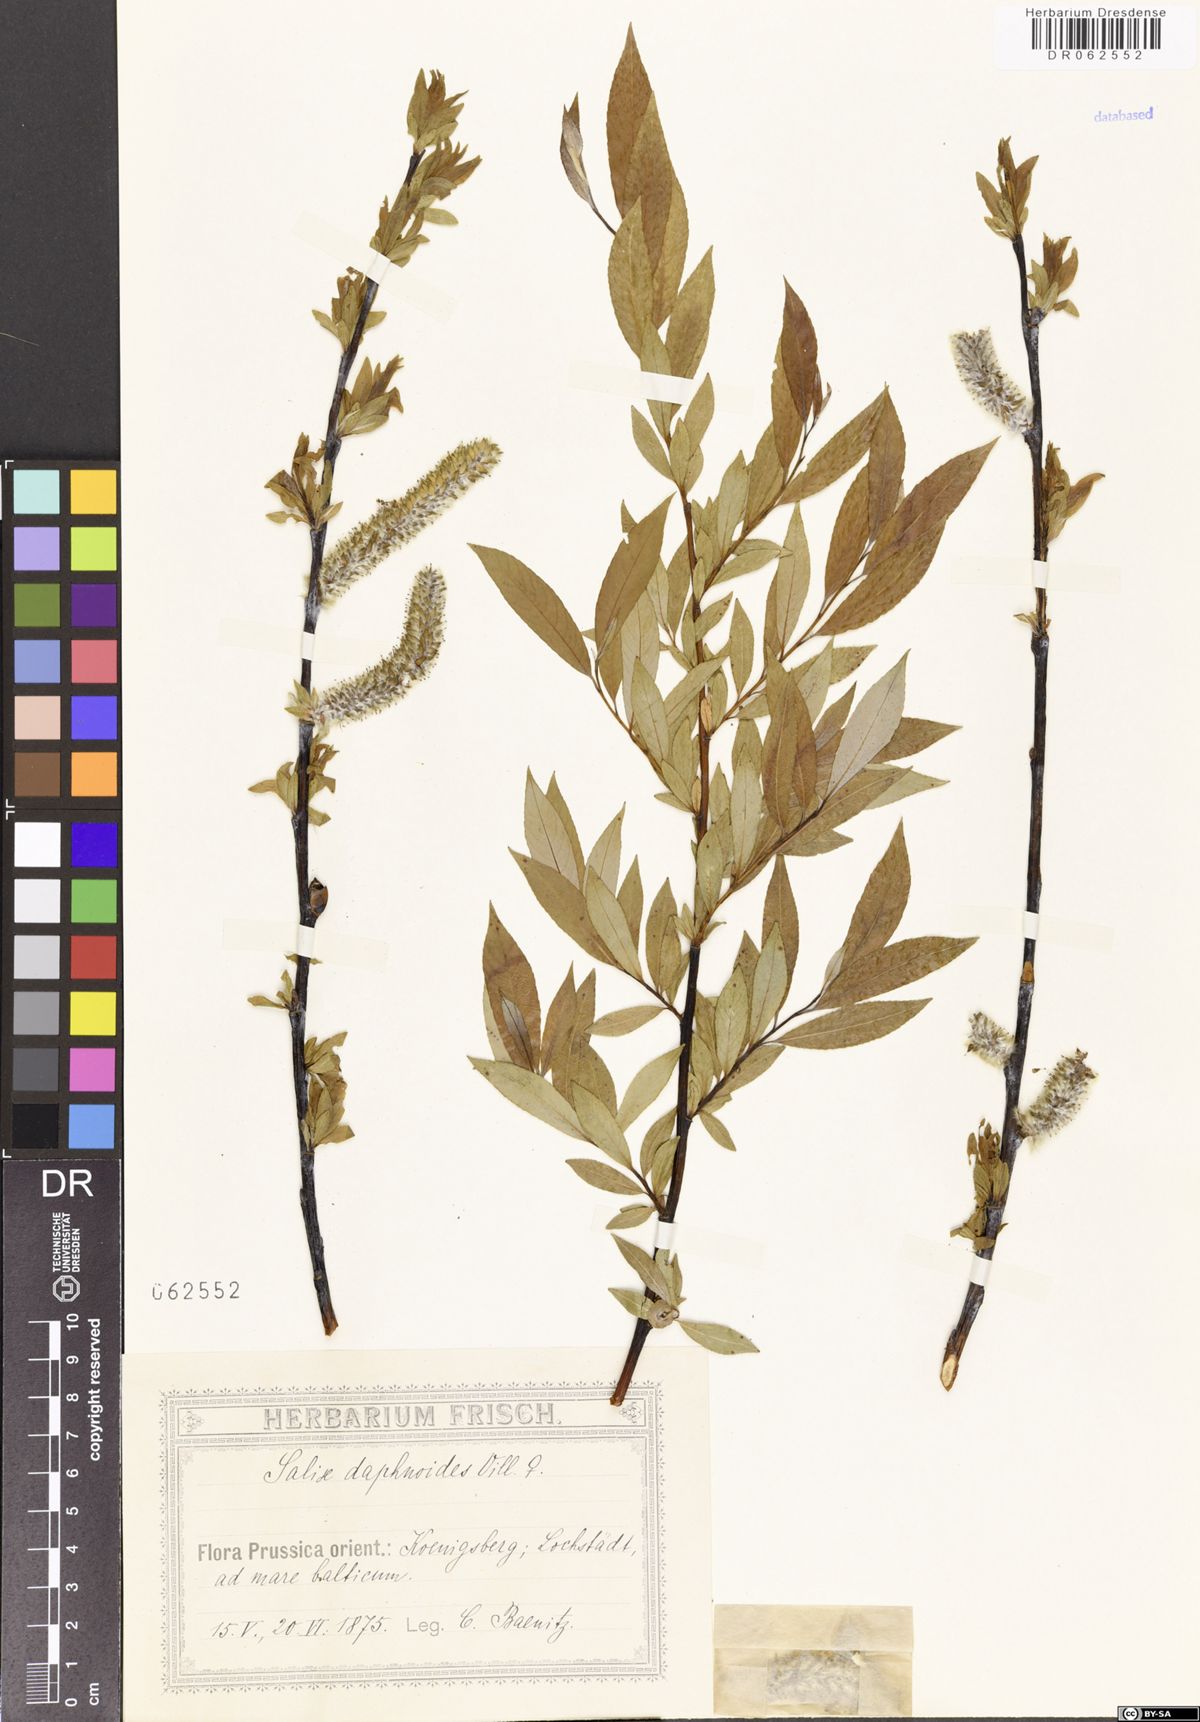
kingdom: Plantae
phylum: Tracheophyta
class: Magnoliopsida
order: Malpighiales
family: Salicaceae
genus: Salix
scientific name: Salix daphnoides
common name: European violet-willow
